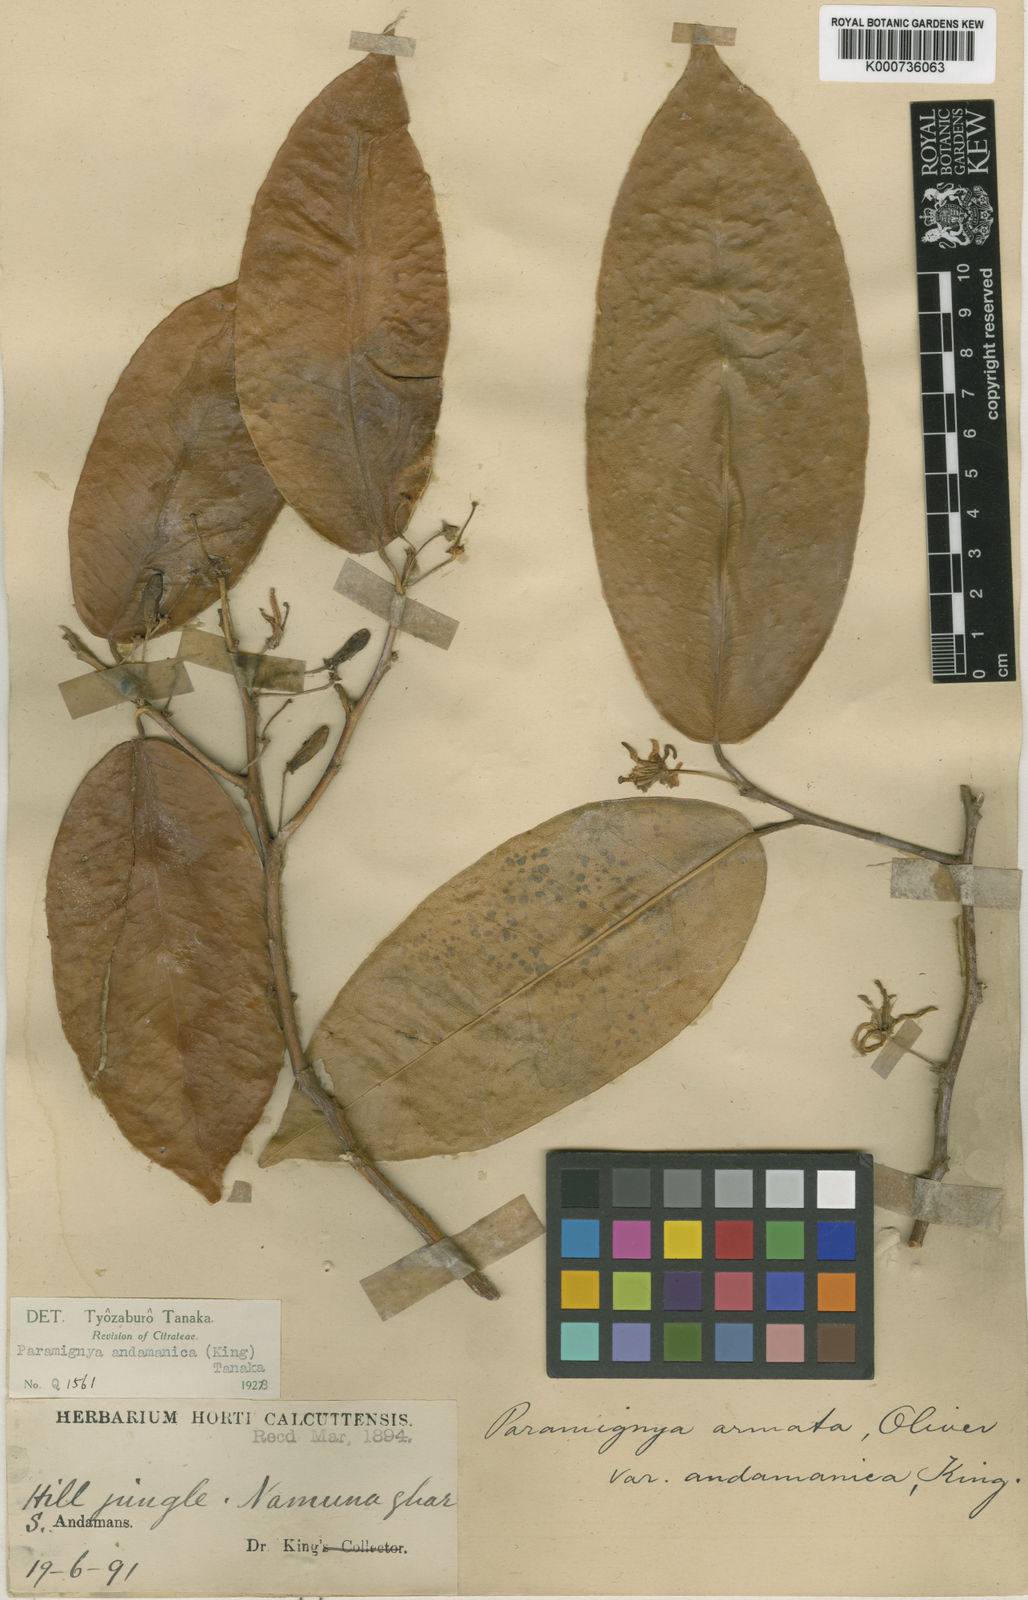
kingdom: Plantae
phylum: Tracheophyta
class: Magnoliopsida
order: Sapindales
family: Rutaceae
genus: Paramignya
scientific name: Paramignya andamanica
